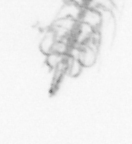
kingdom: Chromista
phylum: Ochrophyta
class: Bacillariophyceae
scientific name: Bacillariophyceae
